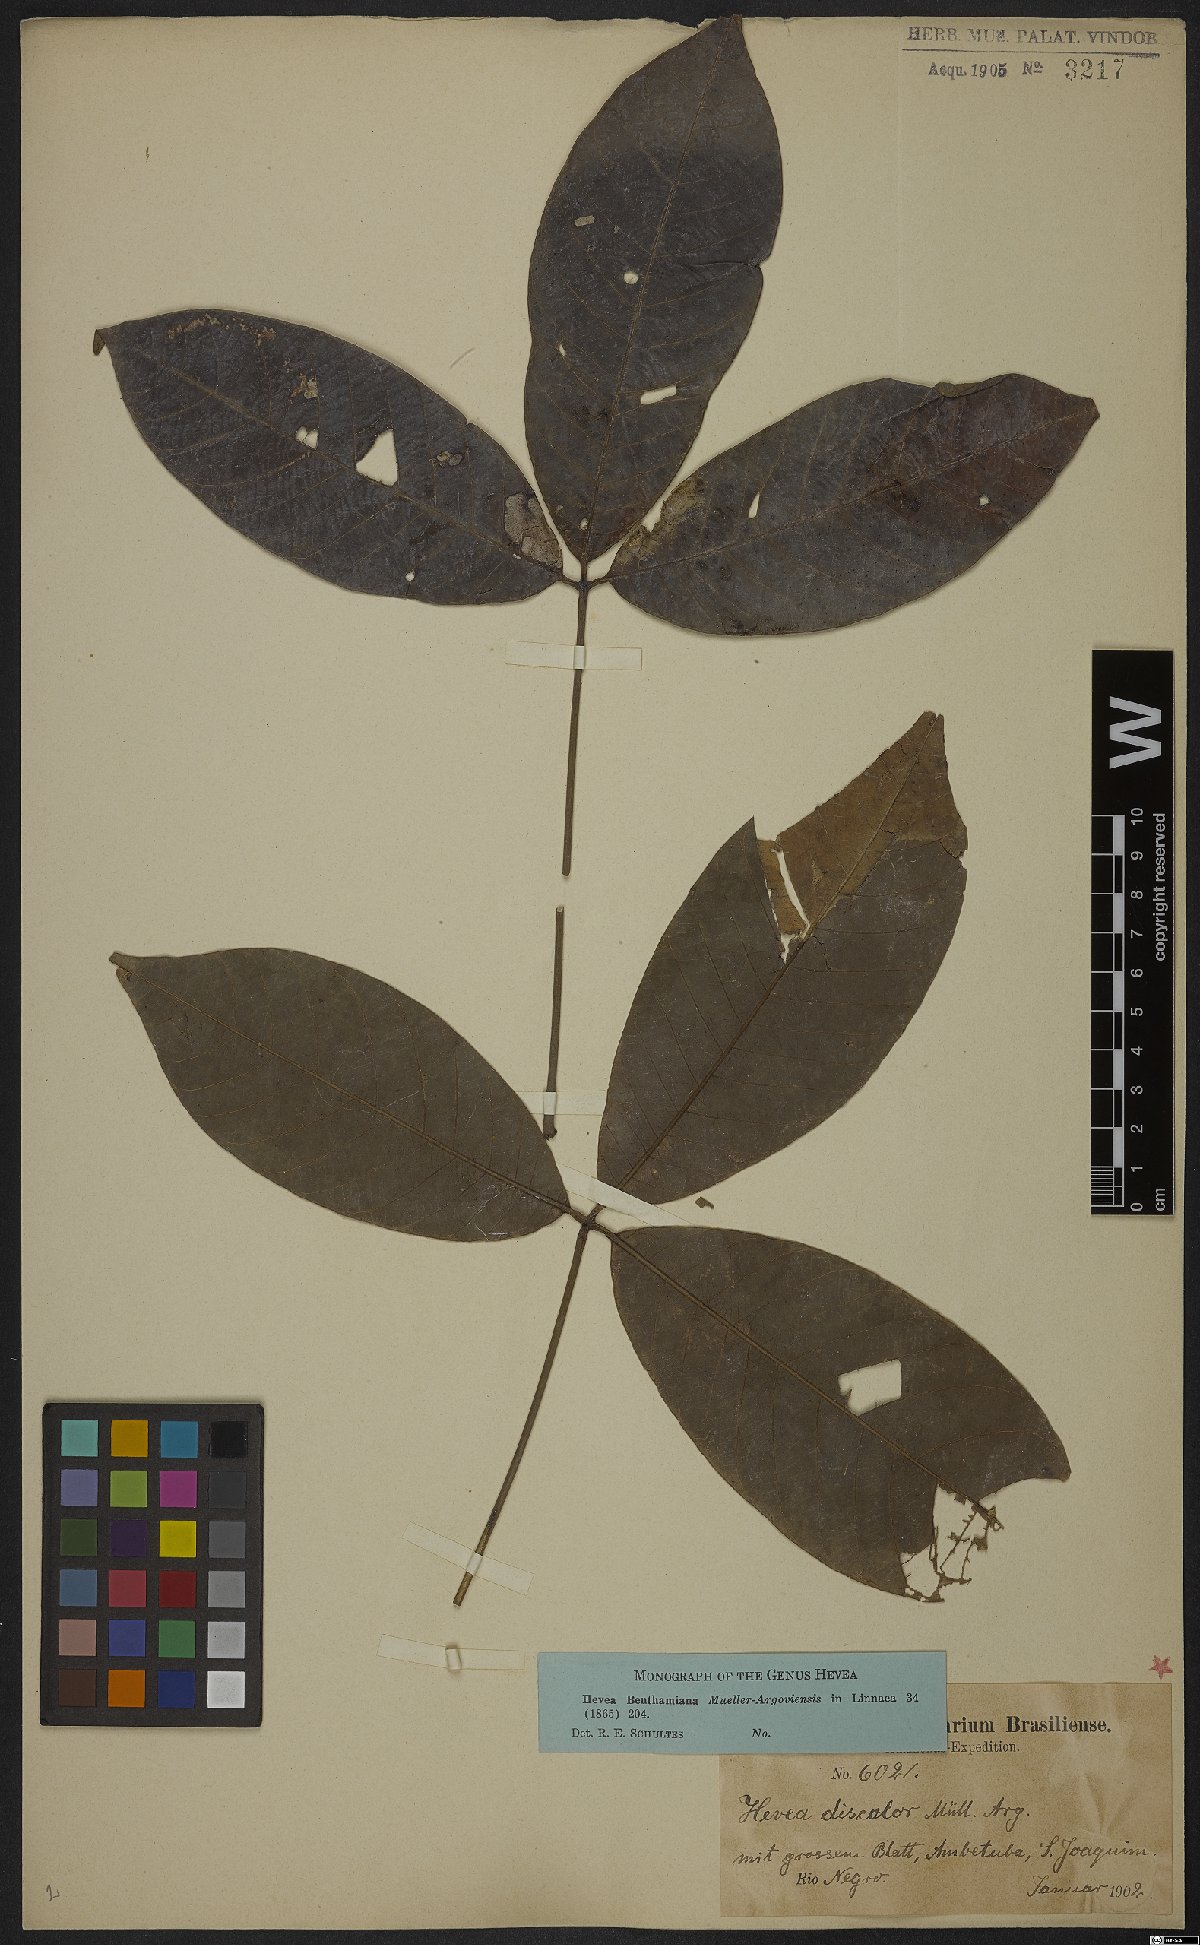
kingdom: Plantae
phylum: Tracheophyta
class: Magnoliopsida
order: Malpighiales
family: Euphorbiaceae
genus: Hevea
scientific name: Hevea benthamiana
